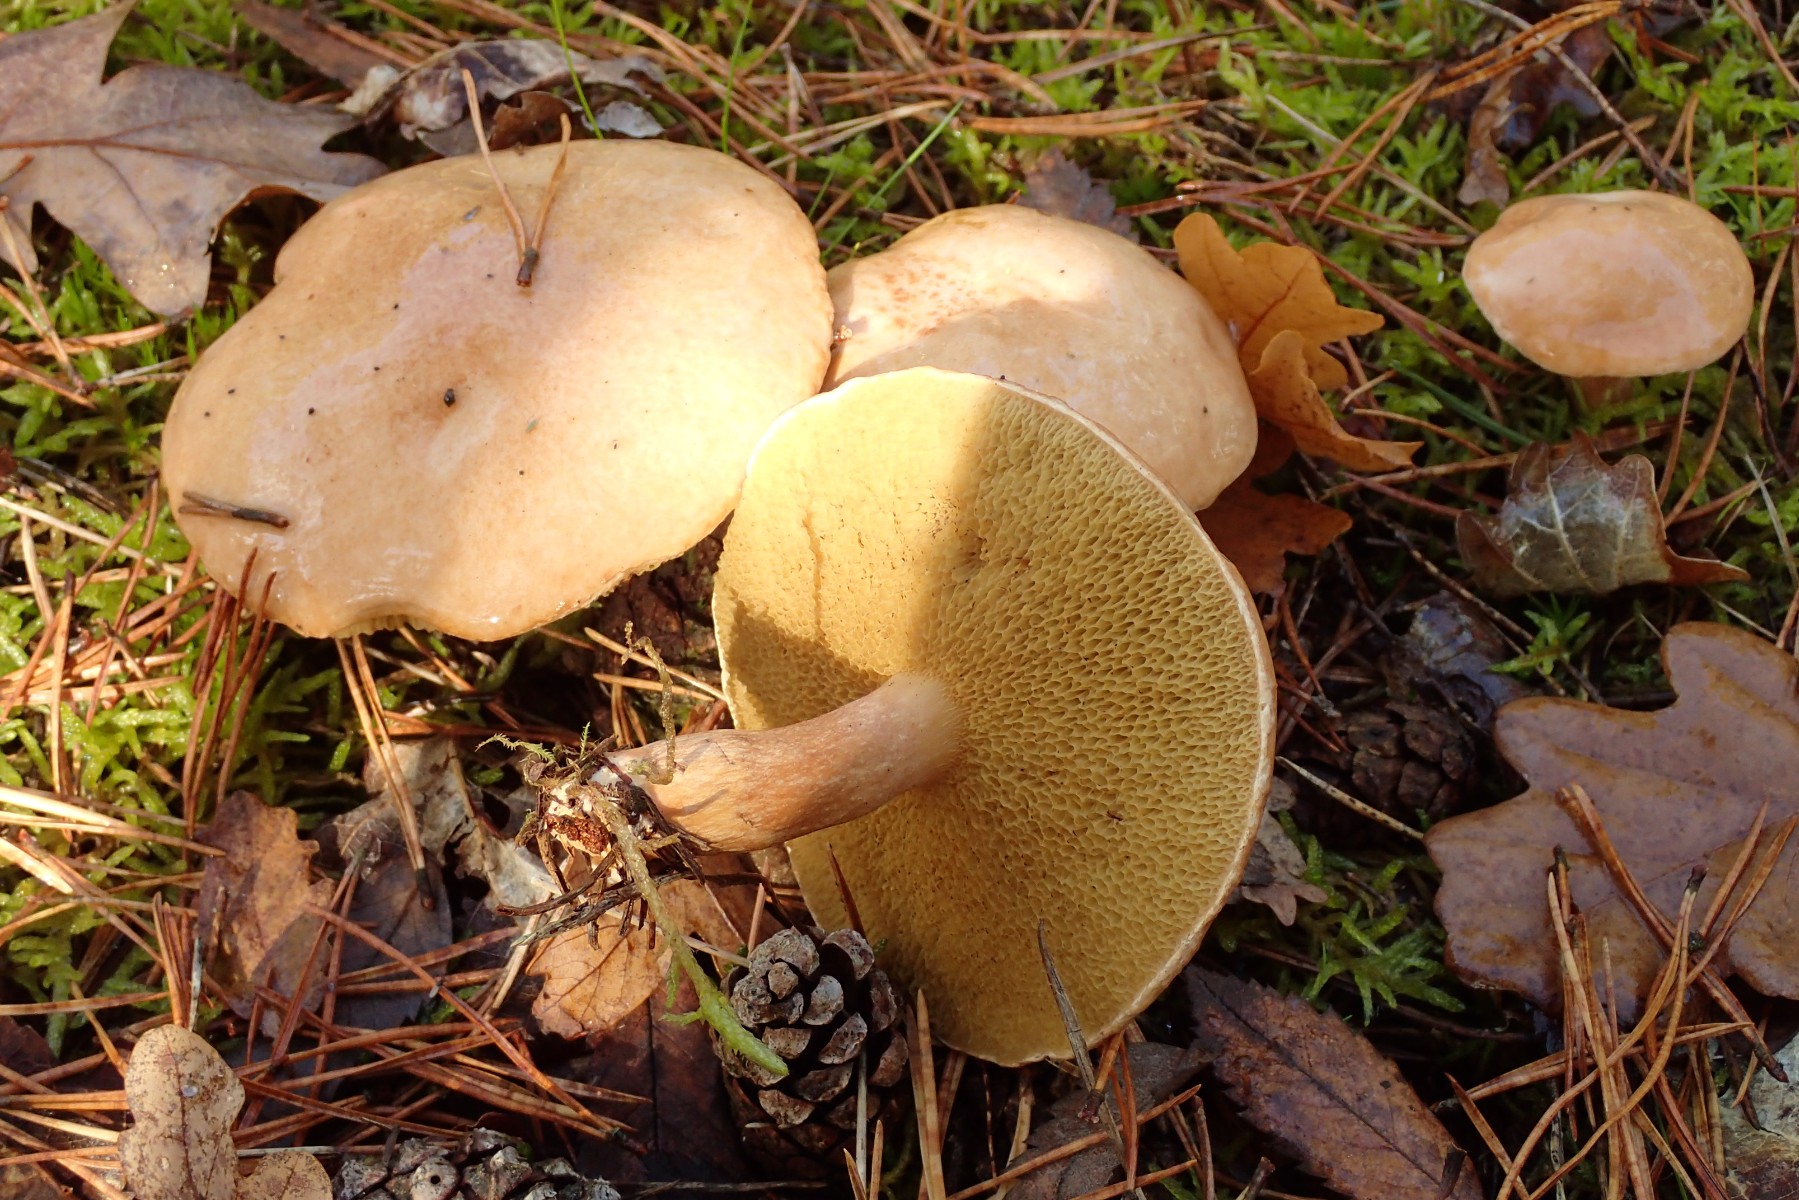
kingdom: Fungi
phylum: Basidiomycota
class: Agaricomycetes
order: Boletales
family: Suillaceae
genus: Suillus
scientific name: Suillus bovinus
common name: grovporet slimrørhat
